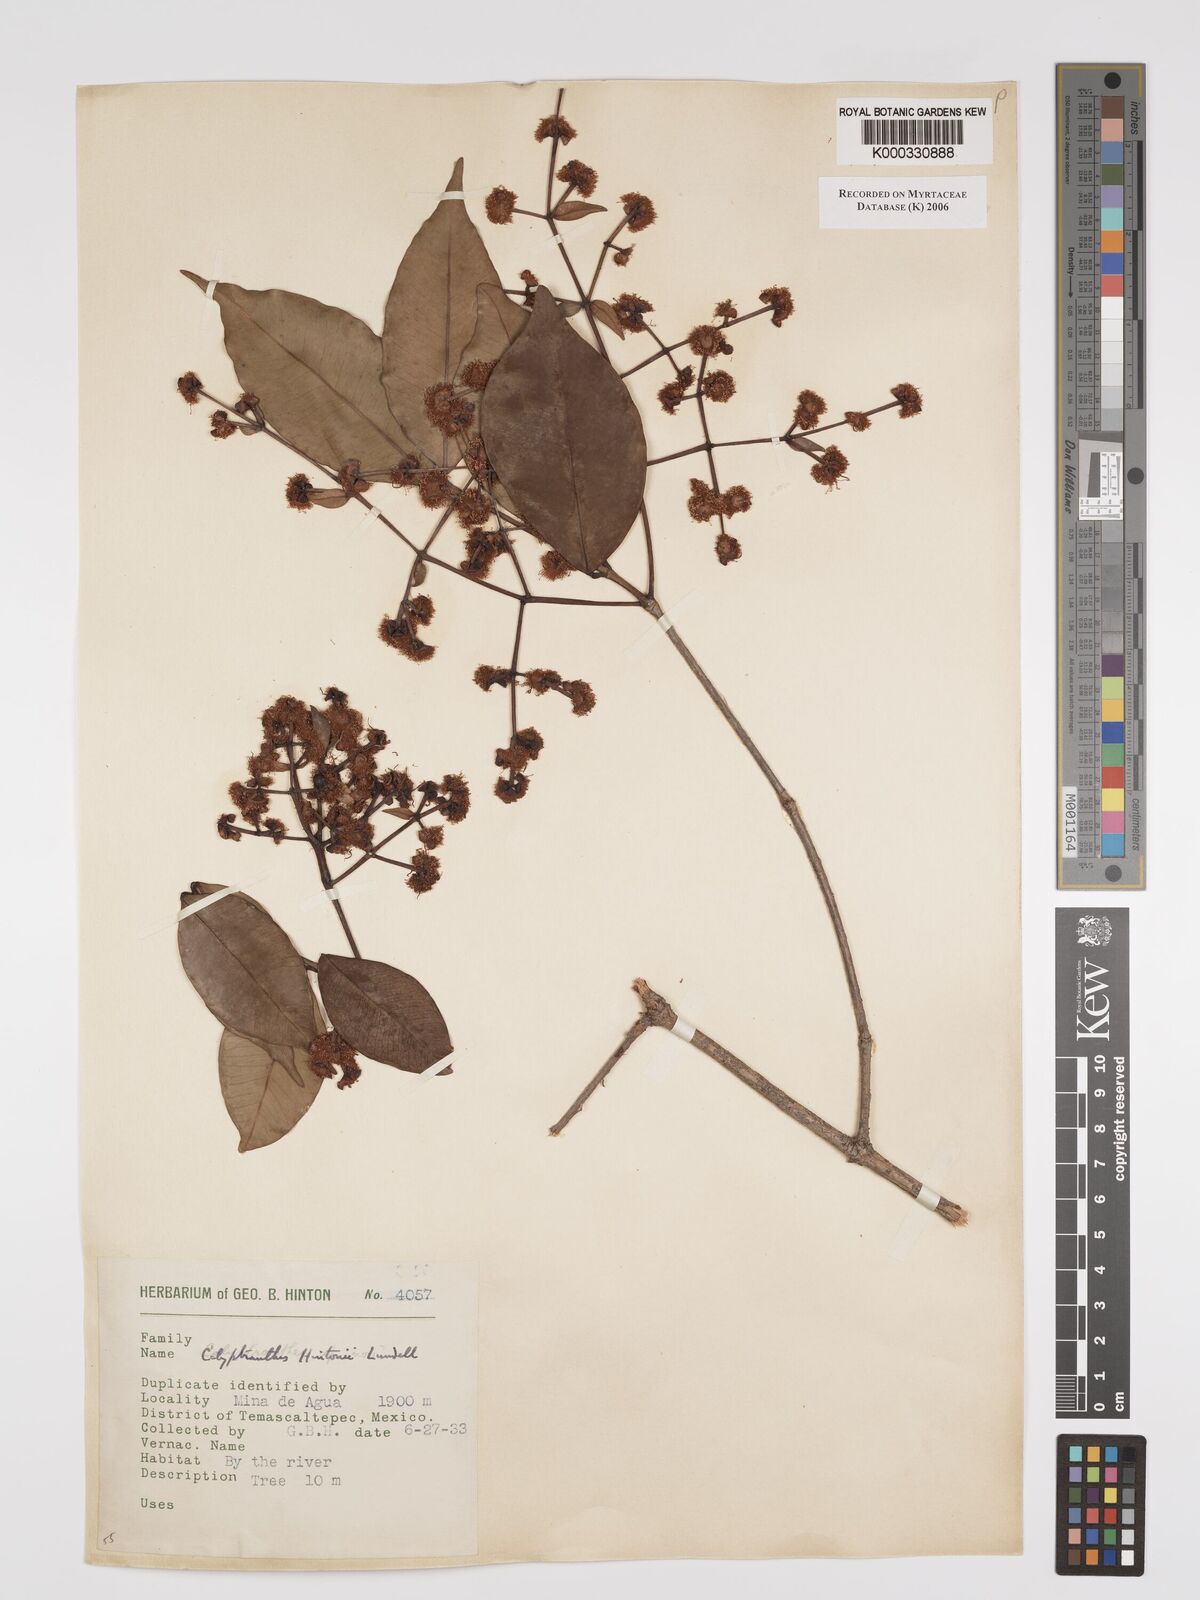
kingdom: Plantae
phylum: Tracheophyta
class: Magnoliopsida
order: Myrtales
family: Myrtaceae
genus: Myrcia
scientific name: Myrcia hintonii
